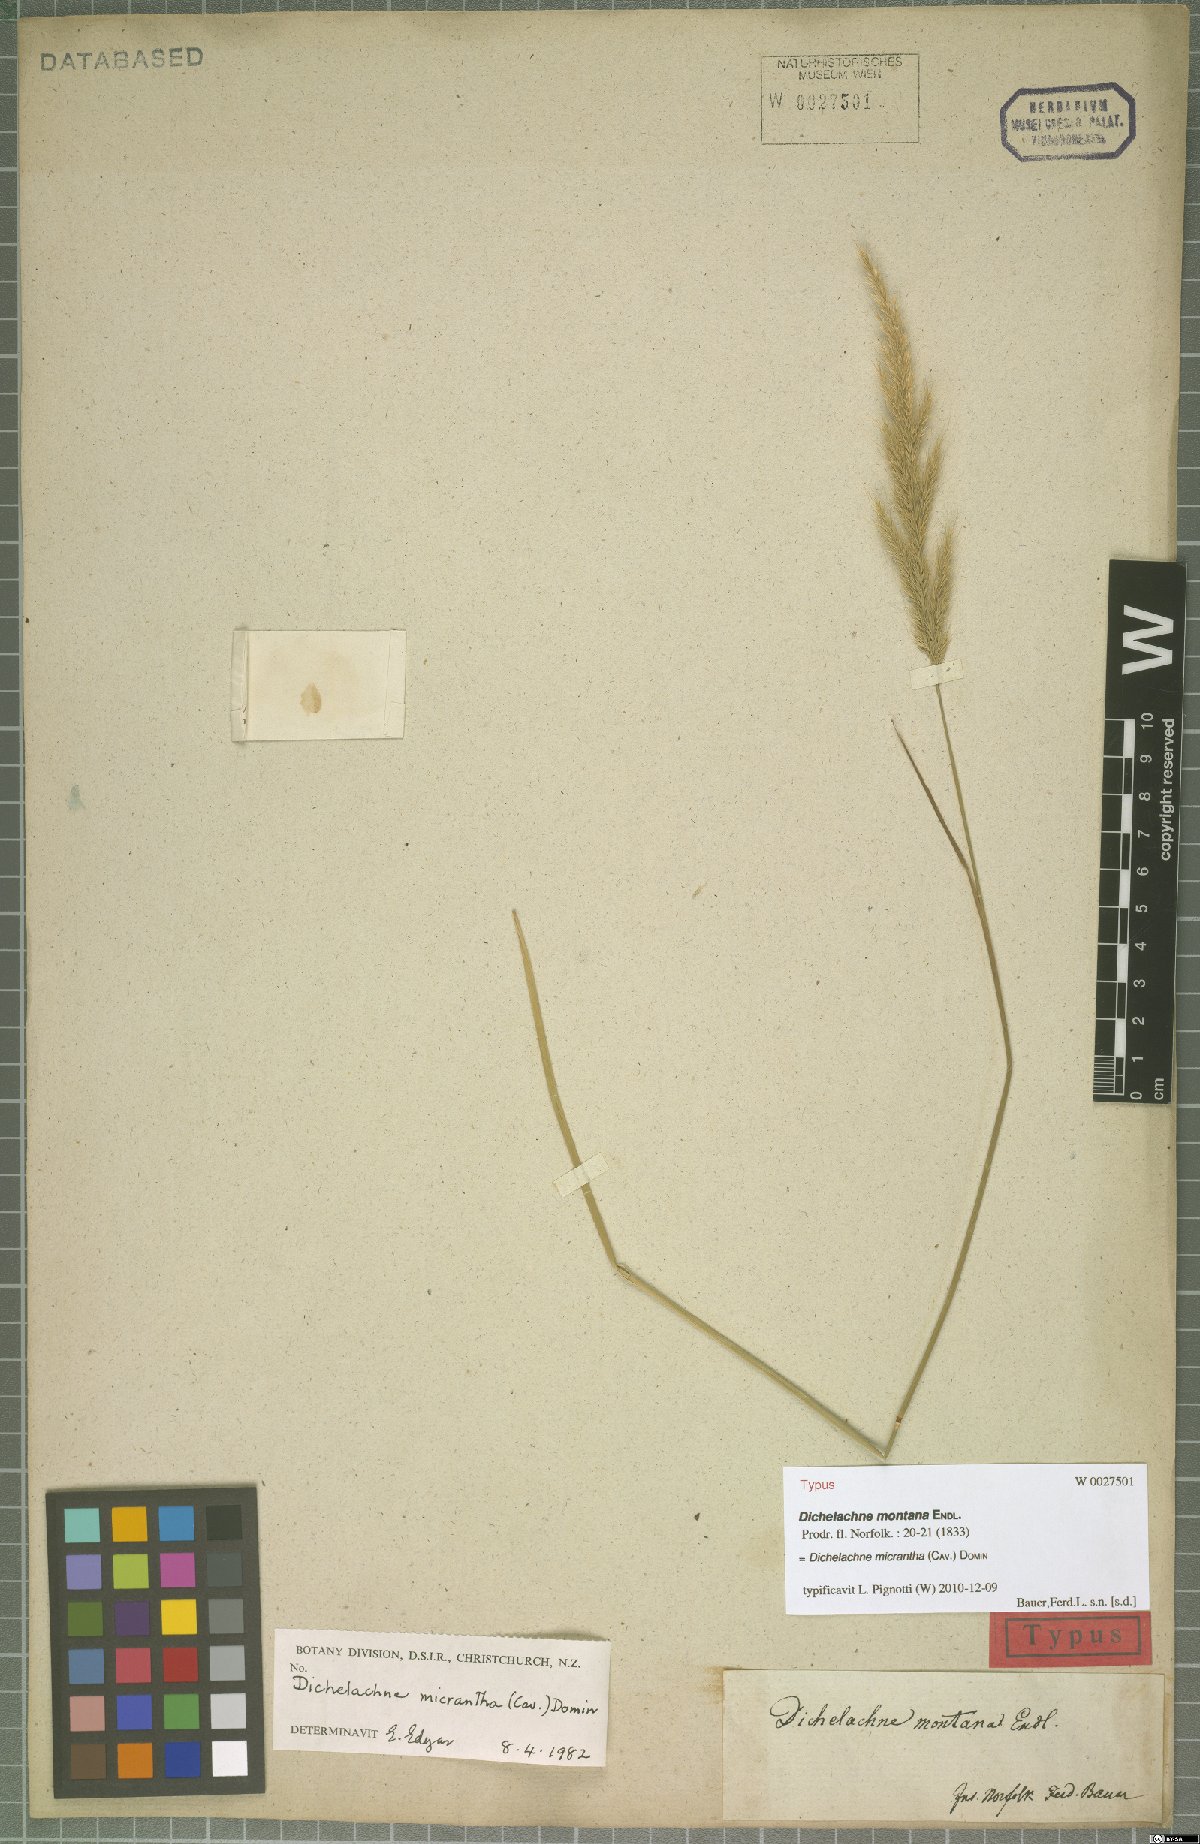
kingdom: Plantae
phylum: Tracheophyta
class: Liliopsida
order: Poales
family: Poaceae
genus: Dichelachne
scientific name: Dichelachne micrantha
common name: Plumegrass
